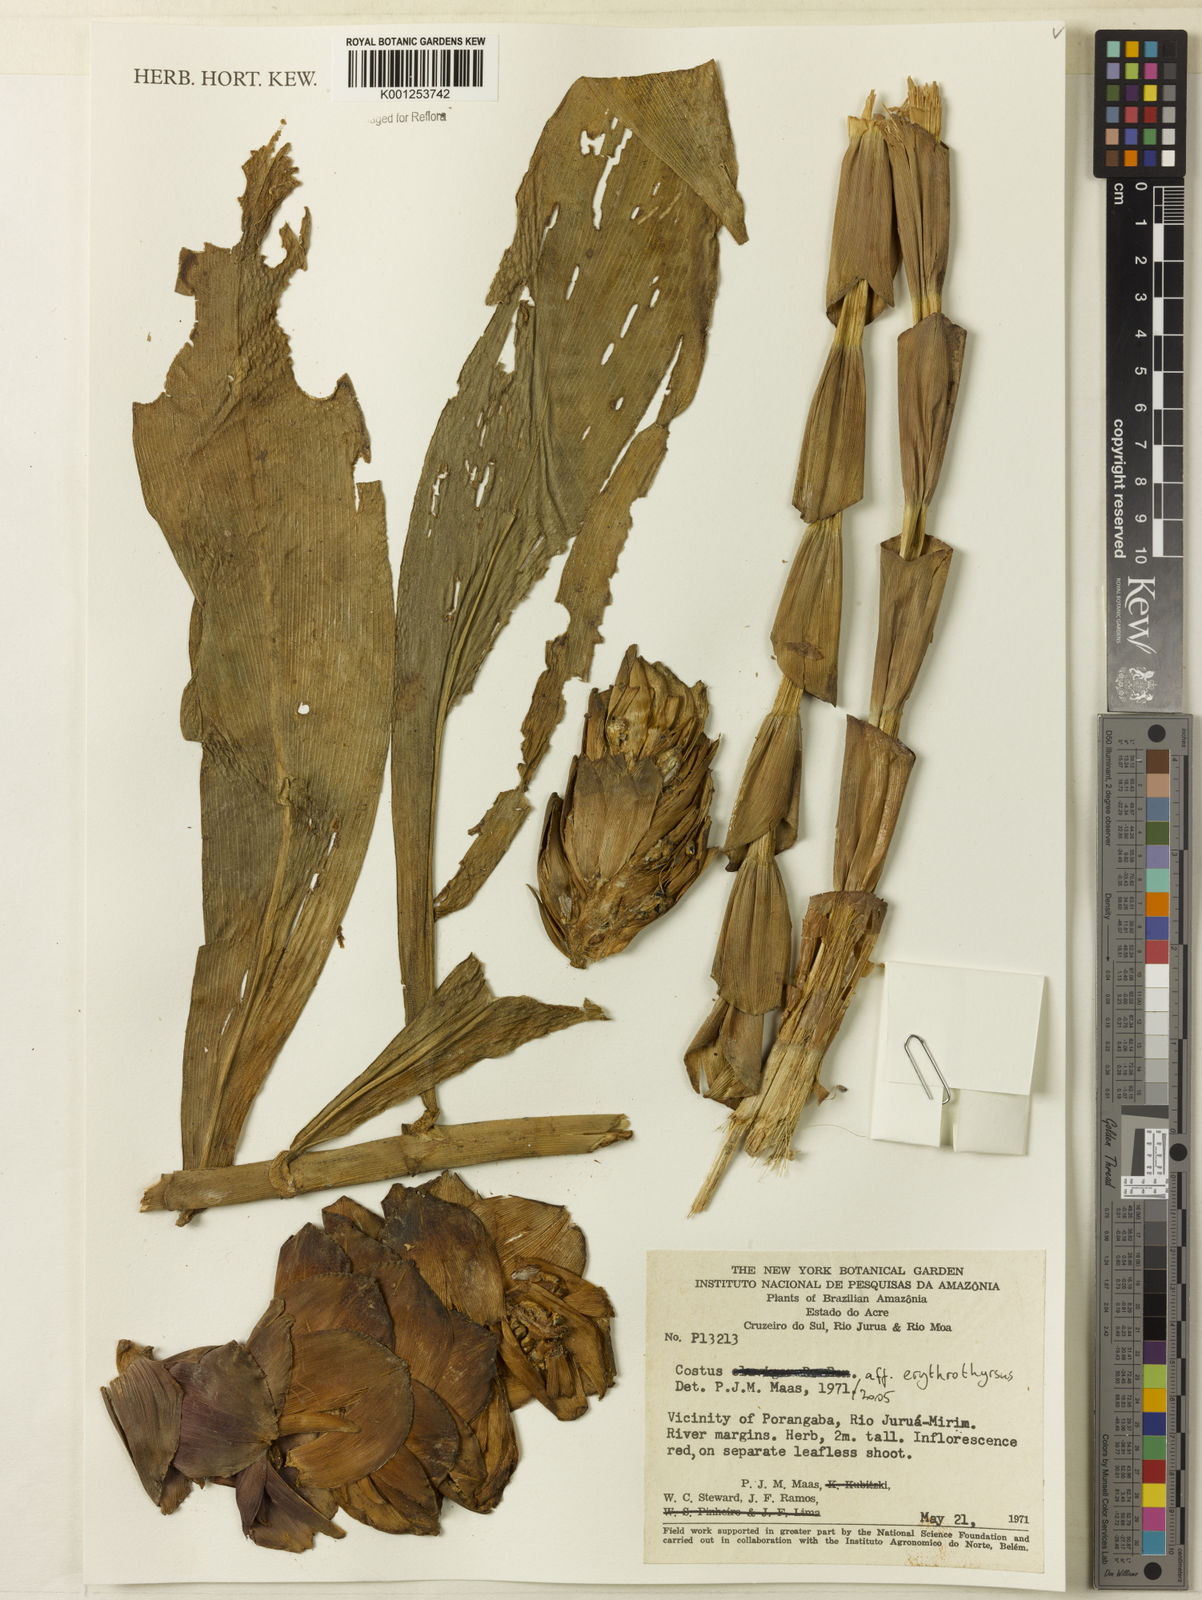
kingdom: Plantae
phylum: Tracheophyta
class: Liliopsida
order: Zingiberales
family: Costaceae
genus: Costus
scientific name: Costus erythrothyrsus
